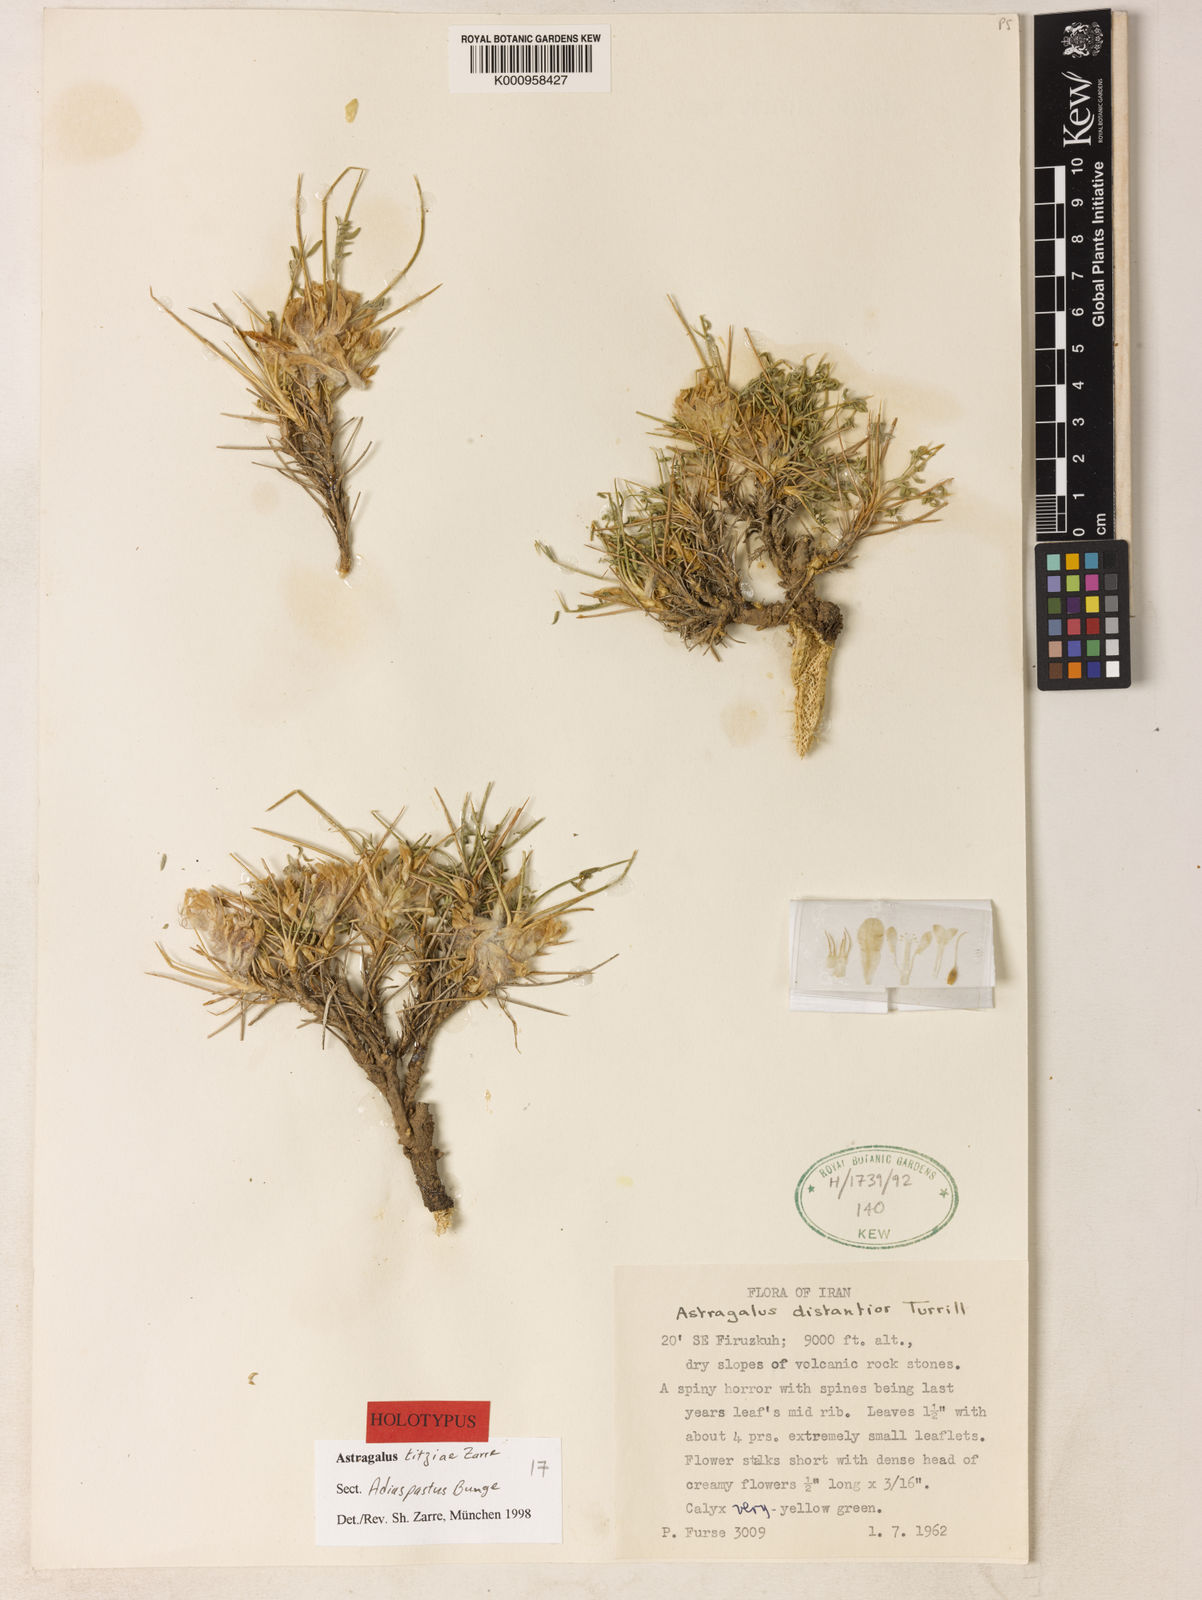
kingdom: Plantae
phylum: Tracheophyta
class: Magnoliopsida
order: Fabales
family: Fabaceae
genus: Astragalus
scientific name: Astragalus
